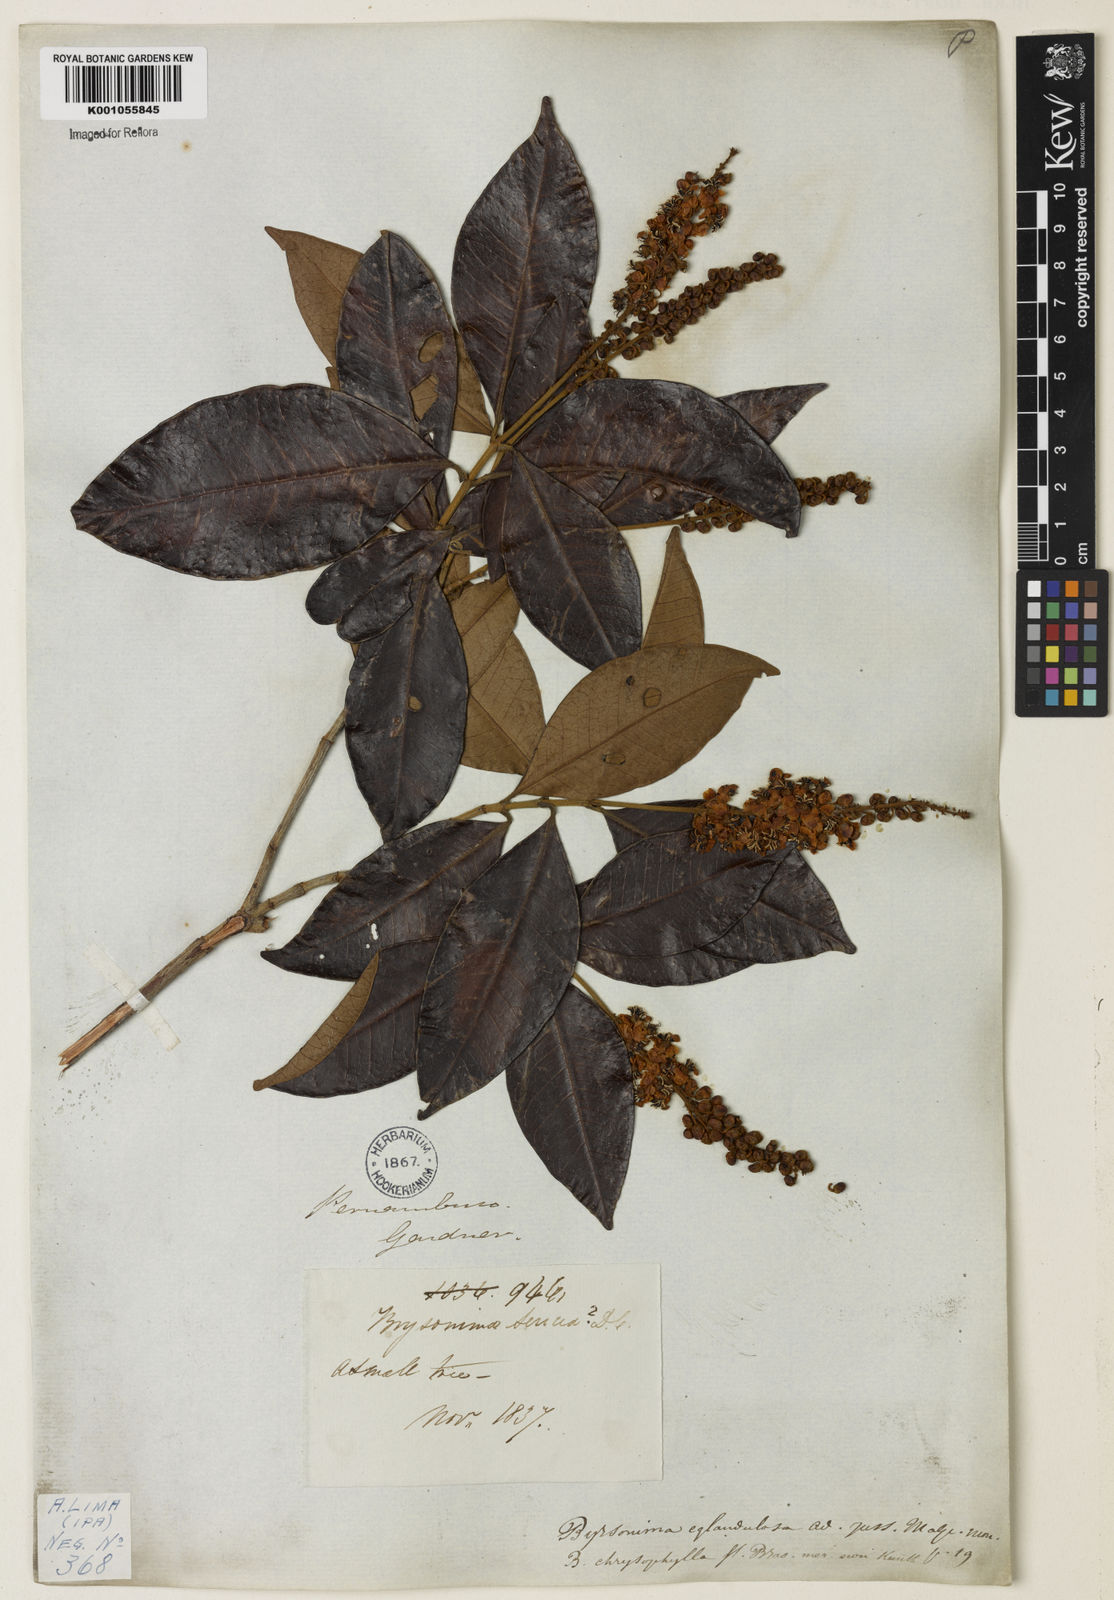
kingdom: Plantae
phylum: Tracheophyta
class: Magnoliopsida
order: Malpighiales
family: Malpighiaceae
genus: Byrsonima
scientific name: Byrsonima sericea
